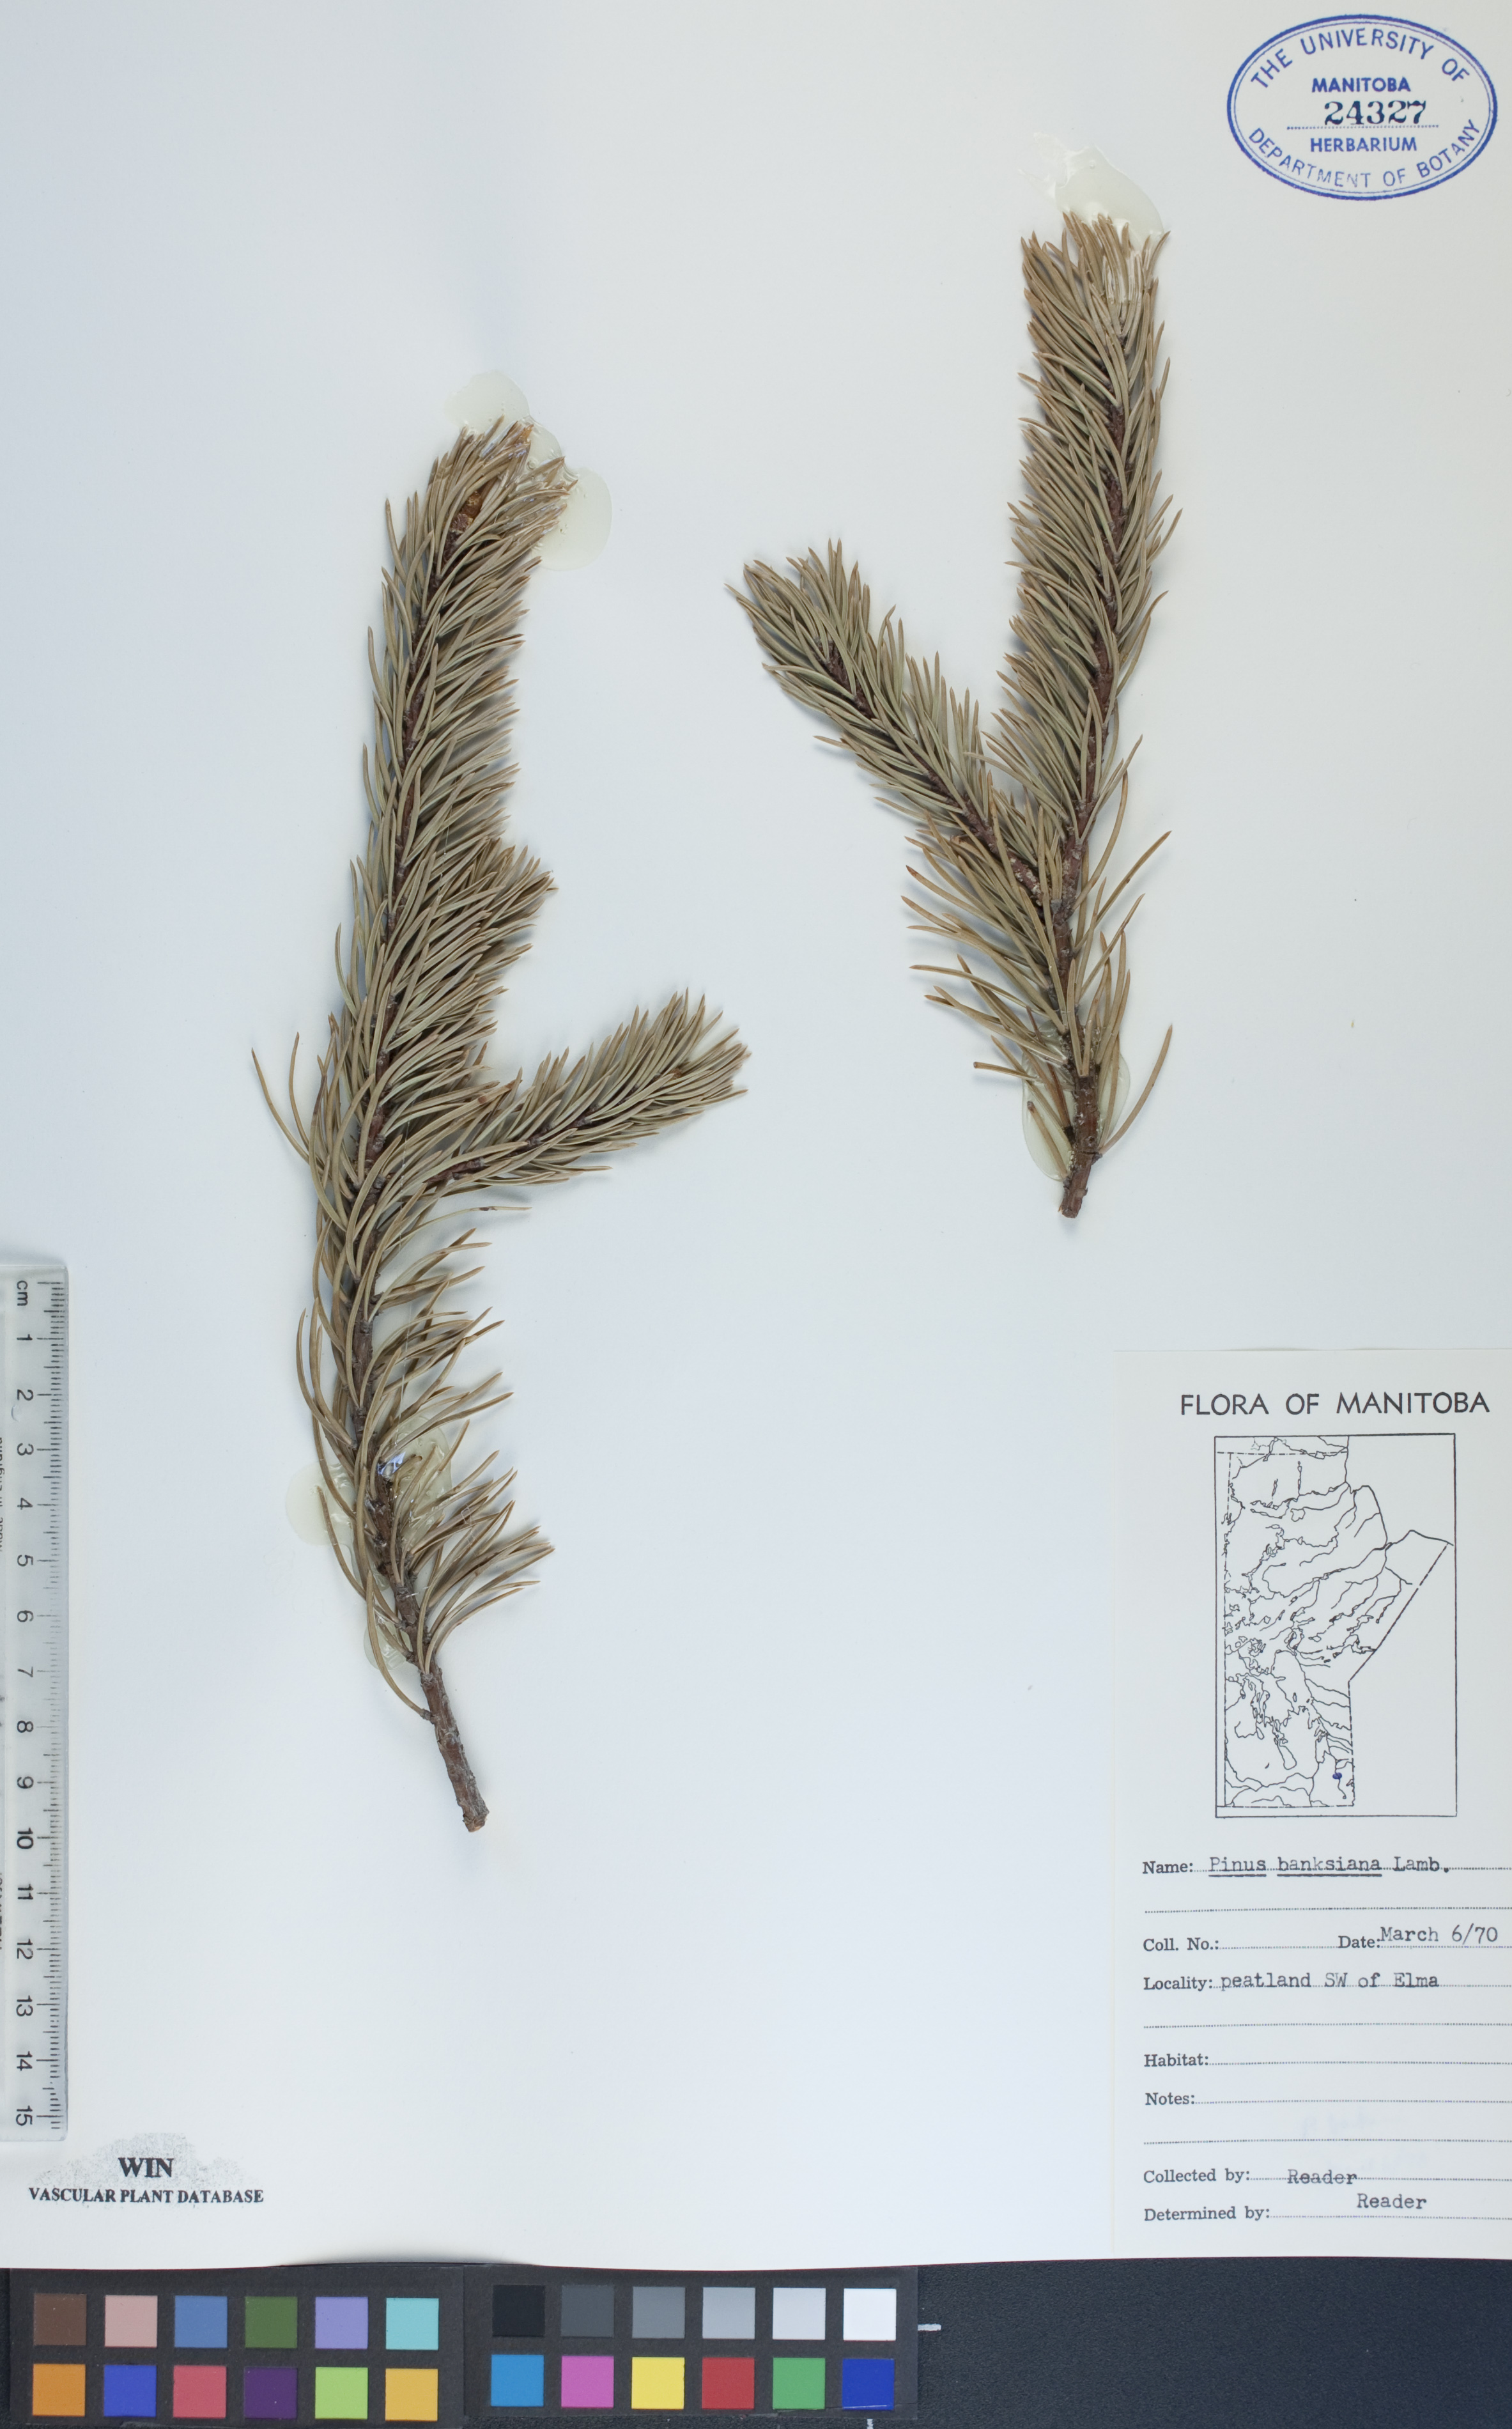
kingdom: Plantae
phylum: Tracheophyta
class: Pinopsida
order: Pinales
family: Pinaceae
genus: Pinus
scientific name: Pinus banksiana
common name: Jack pine
